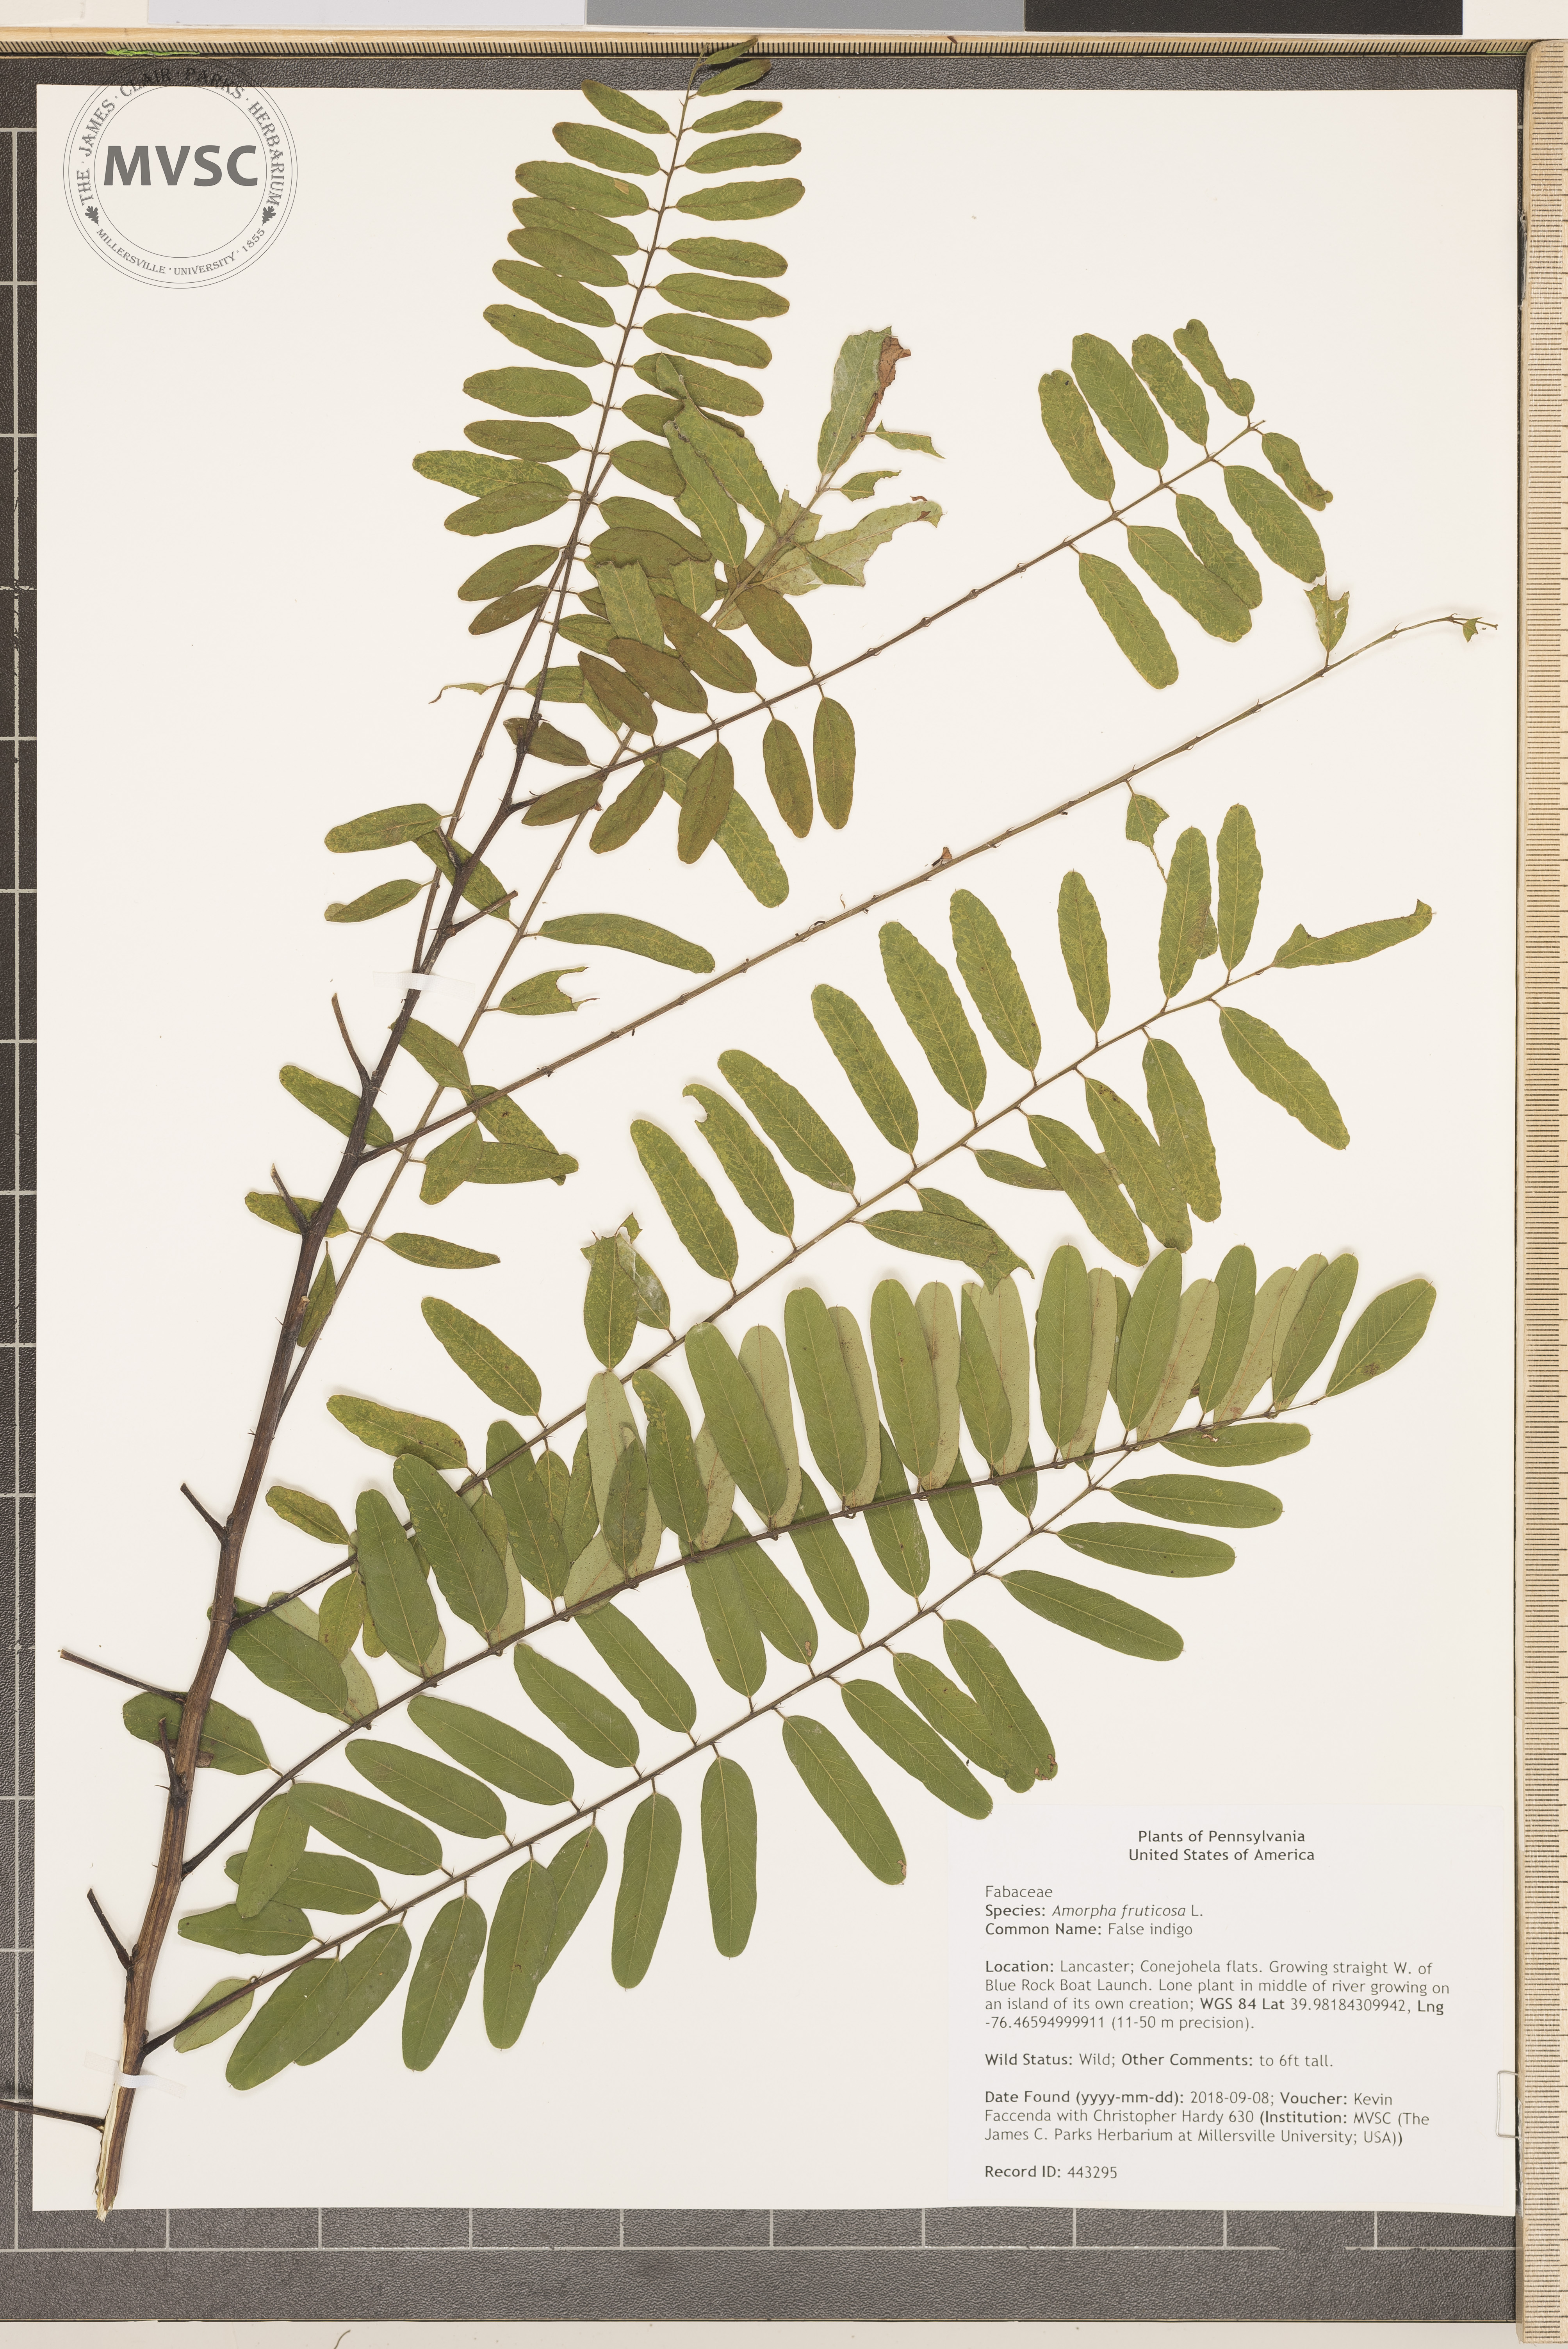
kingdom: Plantae
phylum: Tracheophyta
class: Magnoliopsida
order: Fabales
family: Fabaceae
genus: Amorpha
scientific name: Amorpha fruticosa
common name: False indigo
